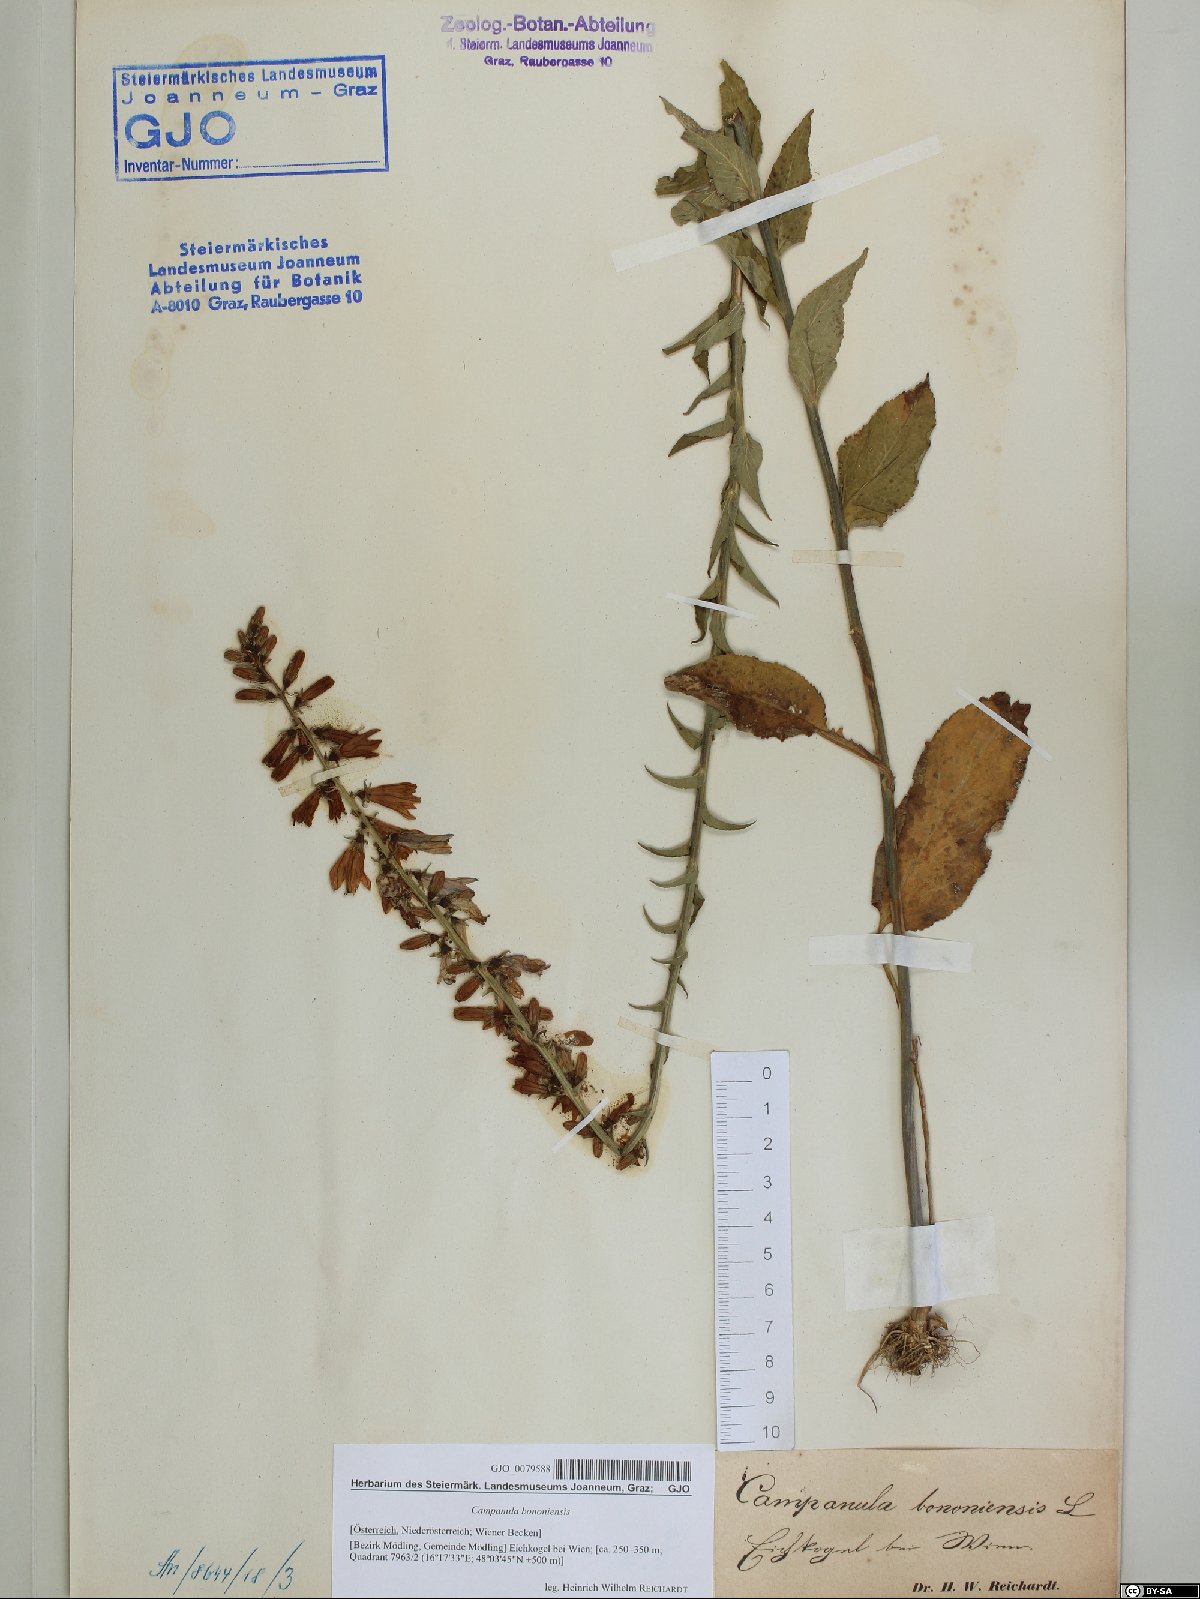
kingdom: Plantae
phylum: Tracheophyta
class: Magnoliopsida
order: Asterales
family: Campanulaceae
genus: Campanula
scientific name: Campanula bononiensis
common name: Pale bellflower
